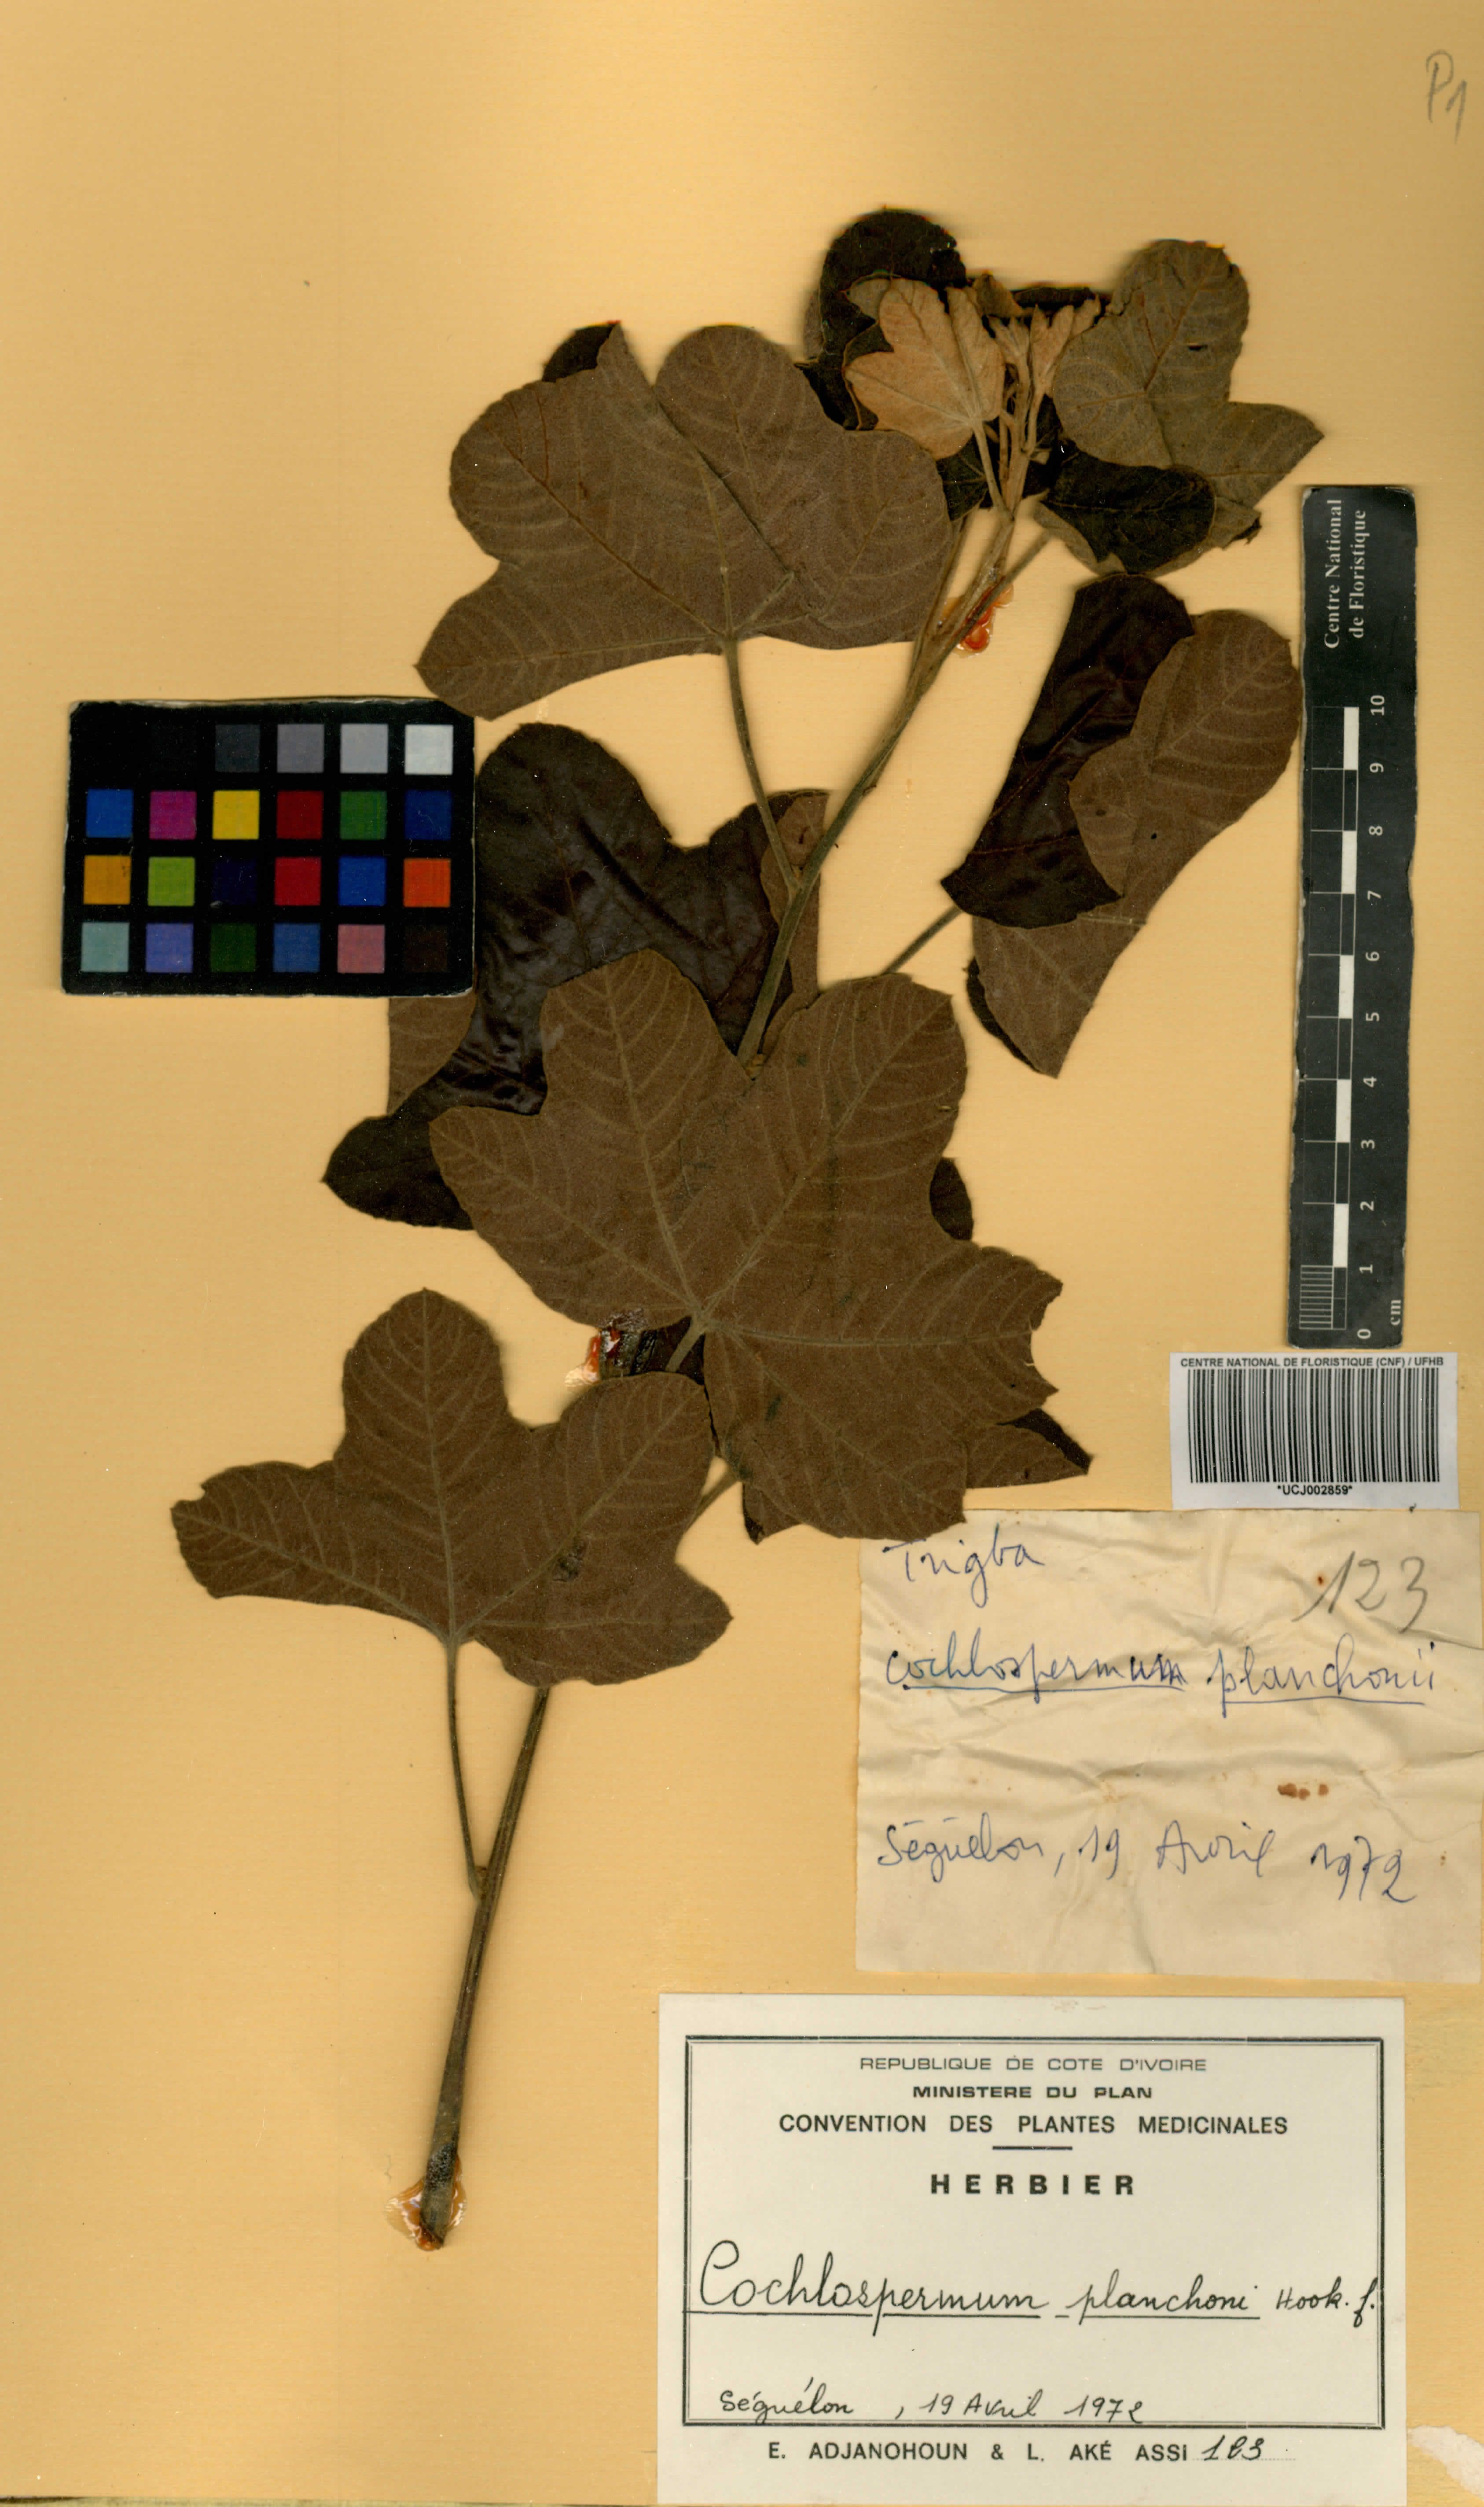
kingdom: Plantae
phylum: Tracheophyta
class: Magnoliopsida
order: Malvales
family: Cochlospermaceae
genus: Cochlospermum
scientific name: Cochlospermum planchonii
